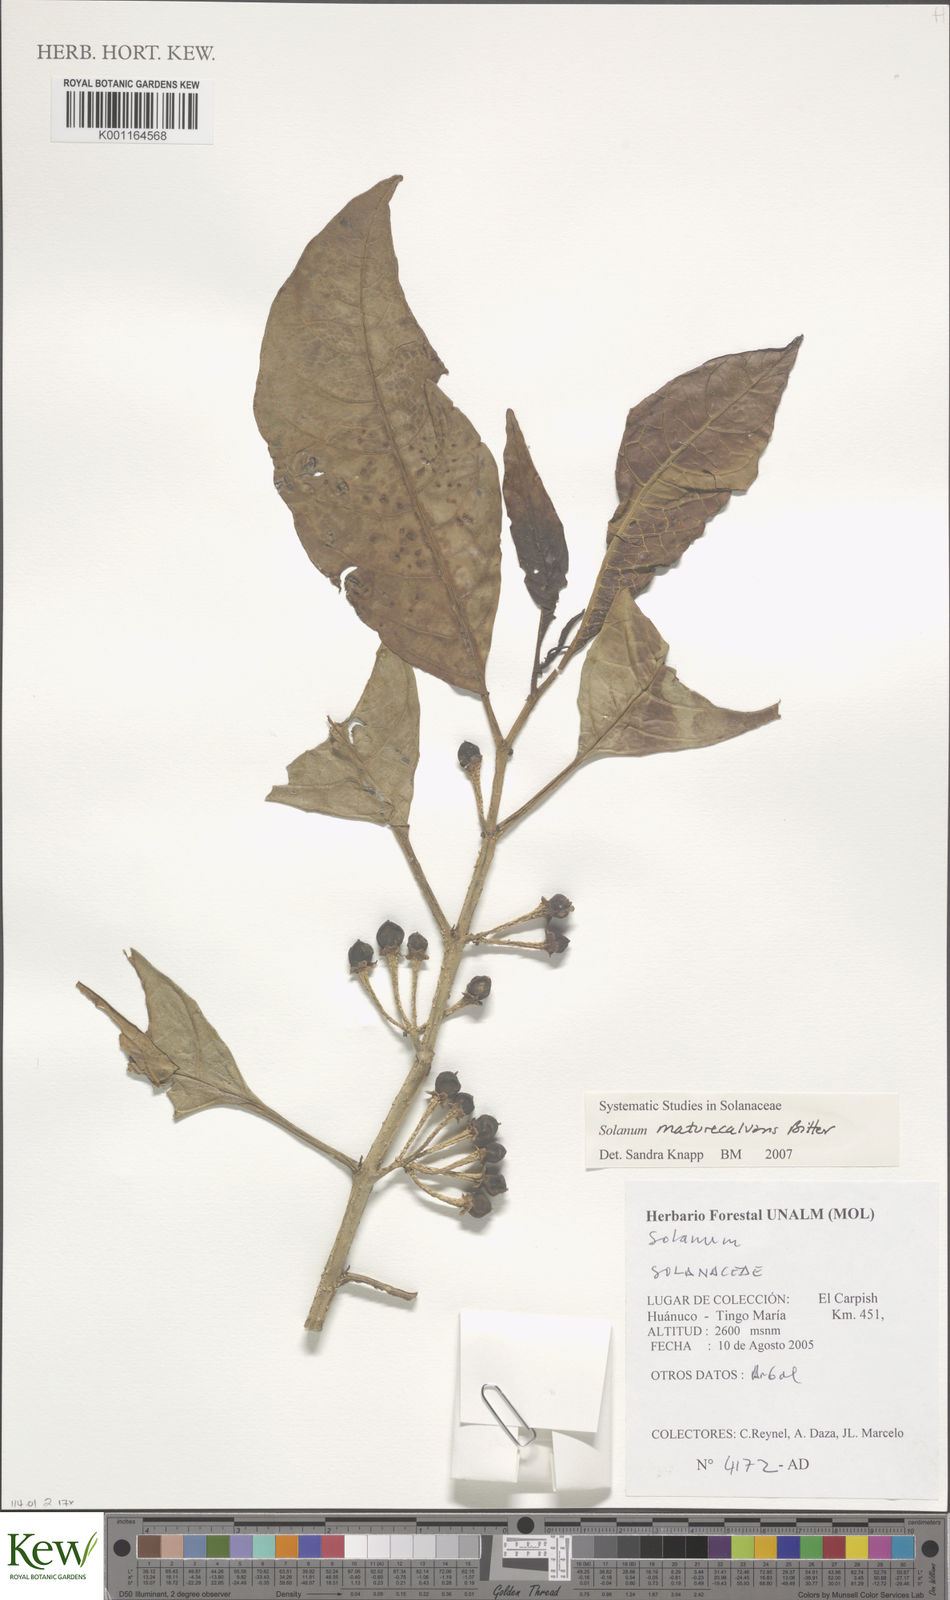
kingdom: Plantae
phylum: Tracheophyta
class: Magnoliopsida
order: Solanales
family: Solanaceae
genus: Solanum
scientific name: Solanum maturecalvans
